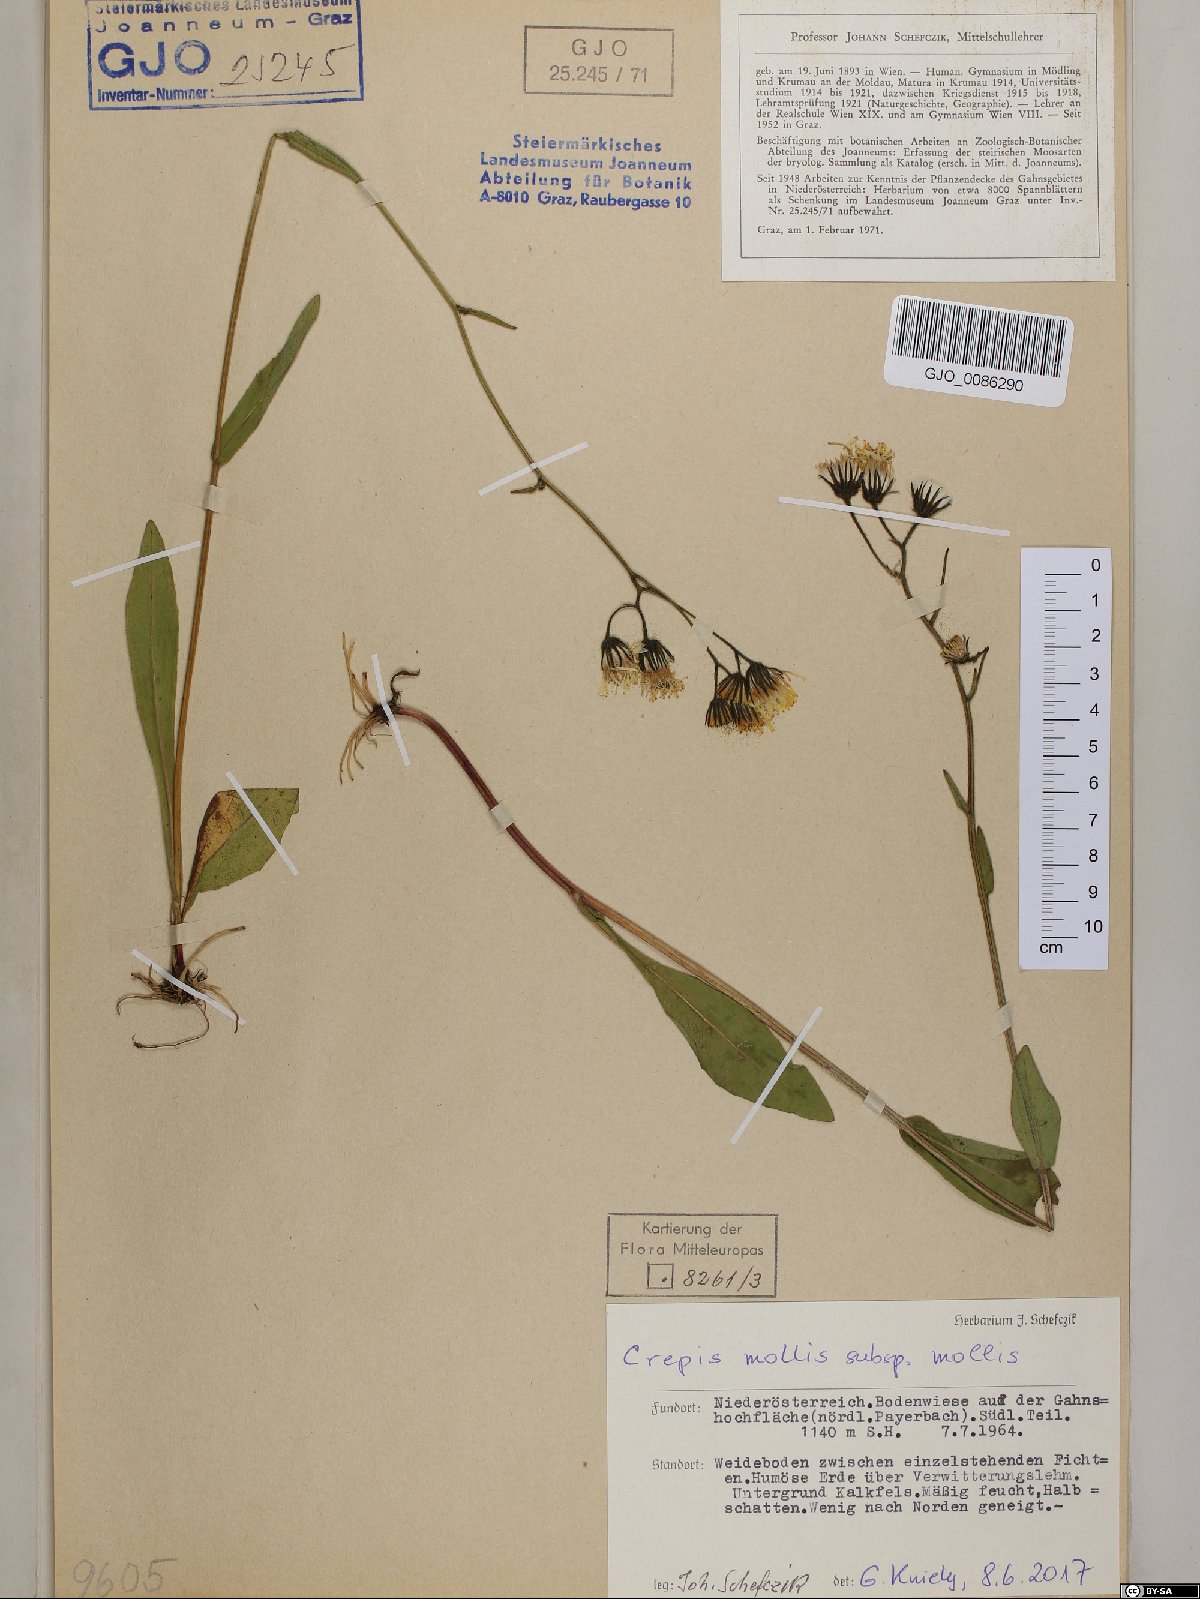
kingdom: Plantae
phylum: Tracheophyta
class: Magnoliopsida
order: Asterales
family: Asteraceae
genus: Crepis
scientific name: Crepis mollis
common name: Northern hawk's-beard
